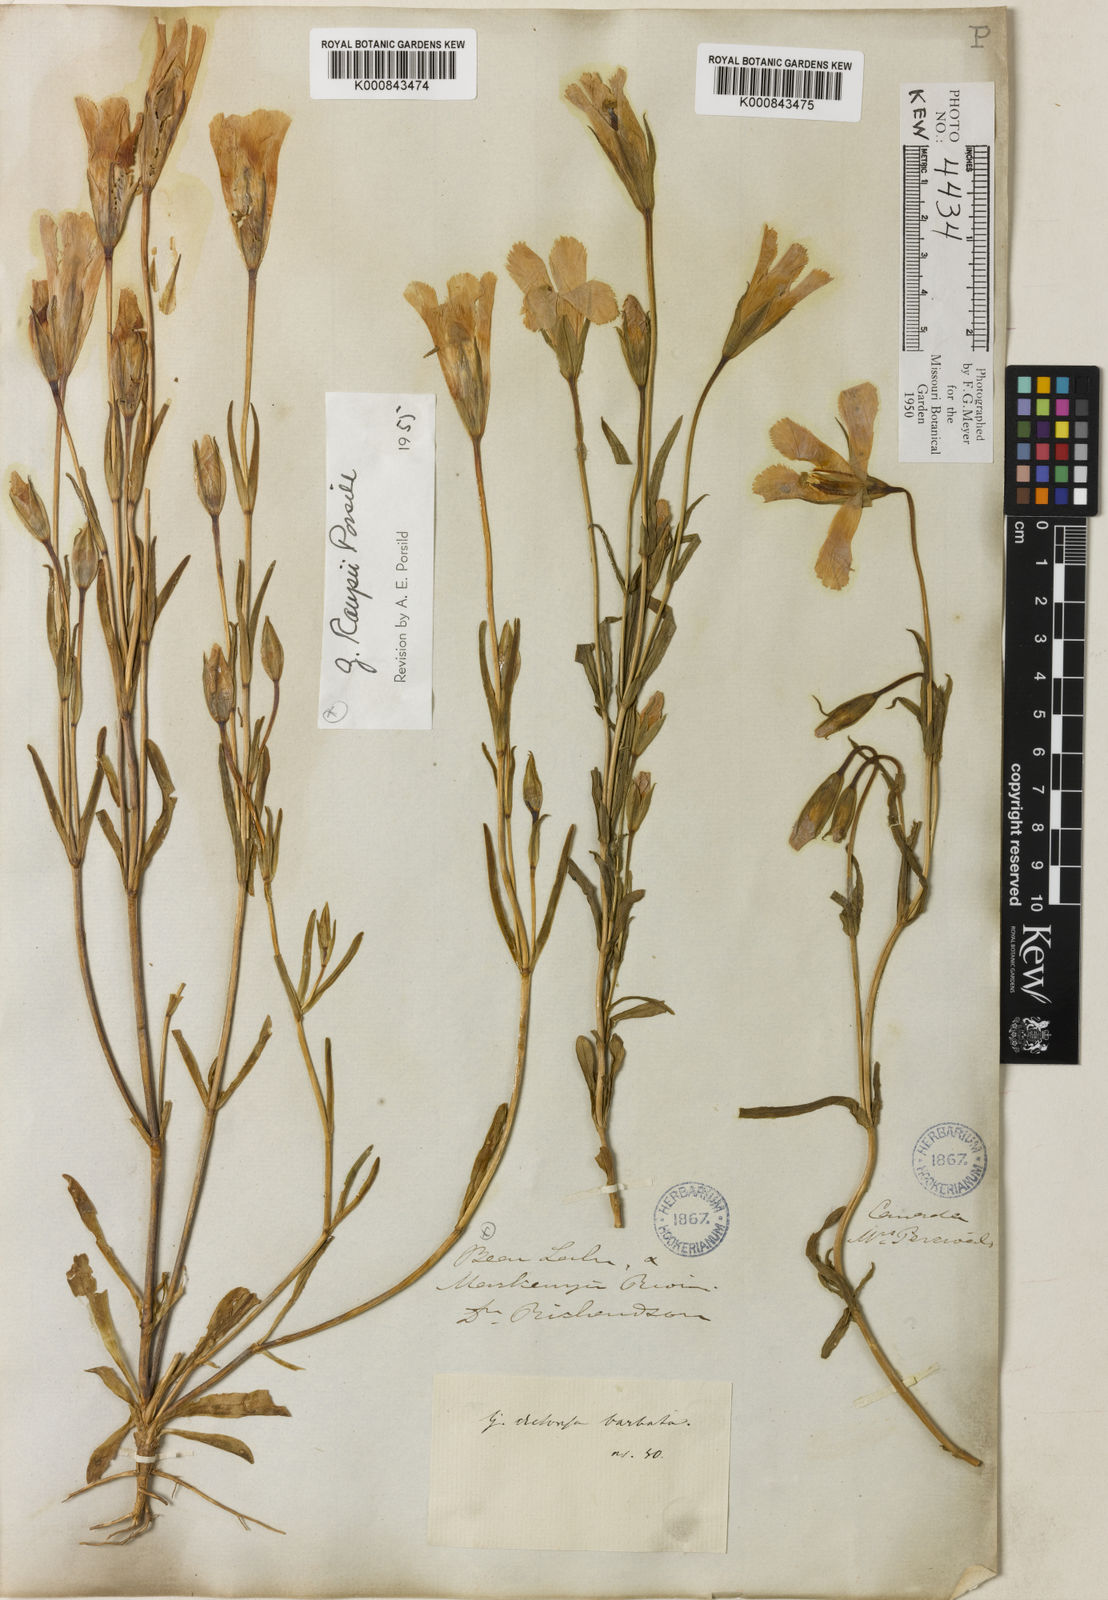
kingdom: Plantae
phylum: Tracheophyta
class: Magnoliopsida
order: Gentianales
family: Gentianaceae
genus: Gentianopsis
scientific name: Gentianopsis detonsa
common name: Fringed-gentian
